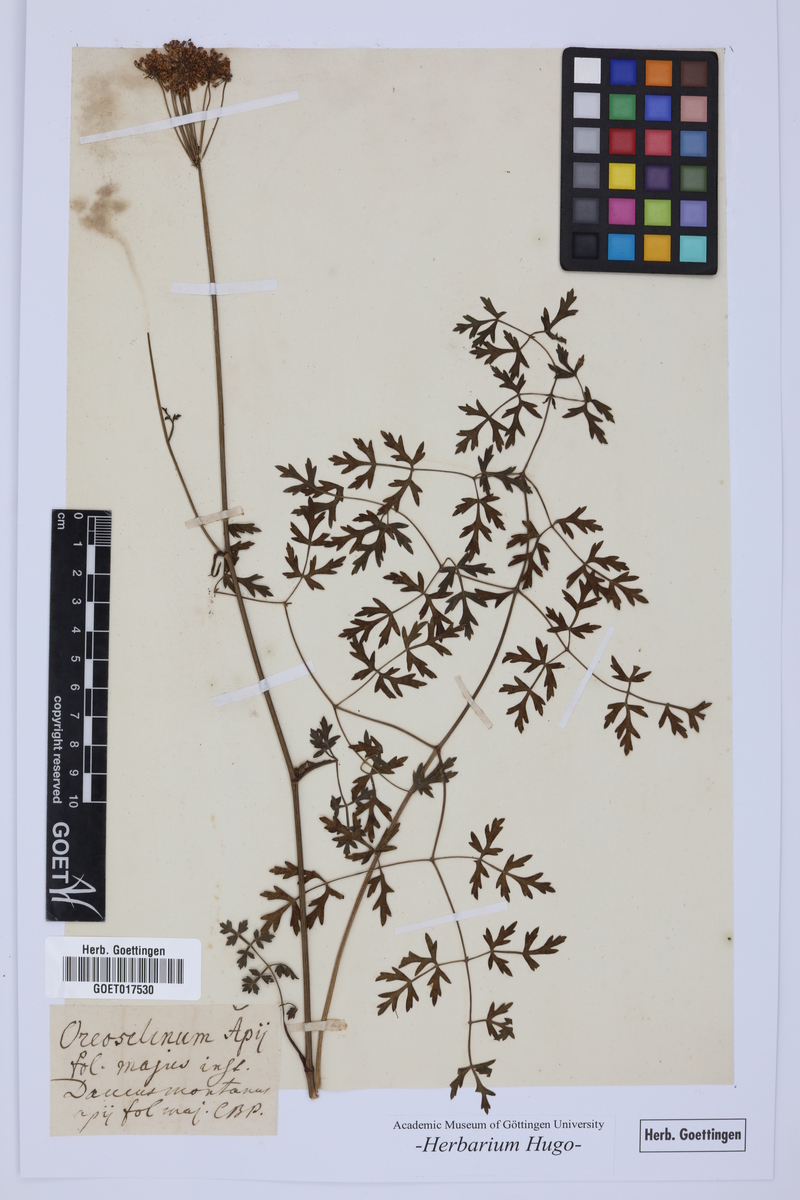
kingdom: Plantae
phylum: Tracheophyta
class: Magnoliopsida
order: Apiales
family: Apiaceae
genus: Seseli
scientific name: Seseli libanotis
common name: Mooncarrot
